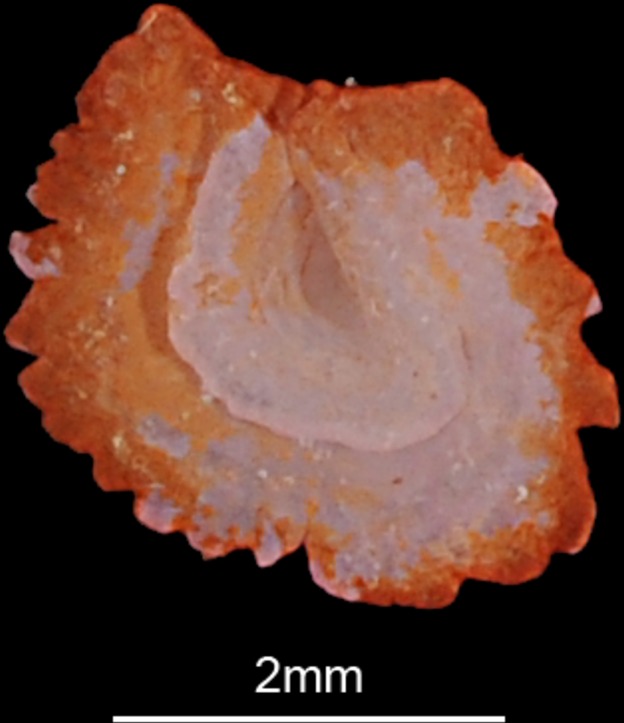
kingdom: Animalia
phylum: Chordata
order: Cypriniformes
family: Cyprinidae
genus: Squalius
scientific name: Squalius cephalus
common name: Chub
